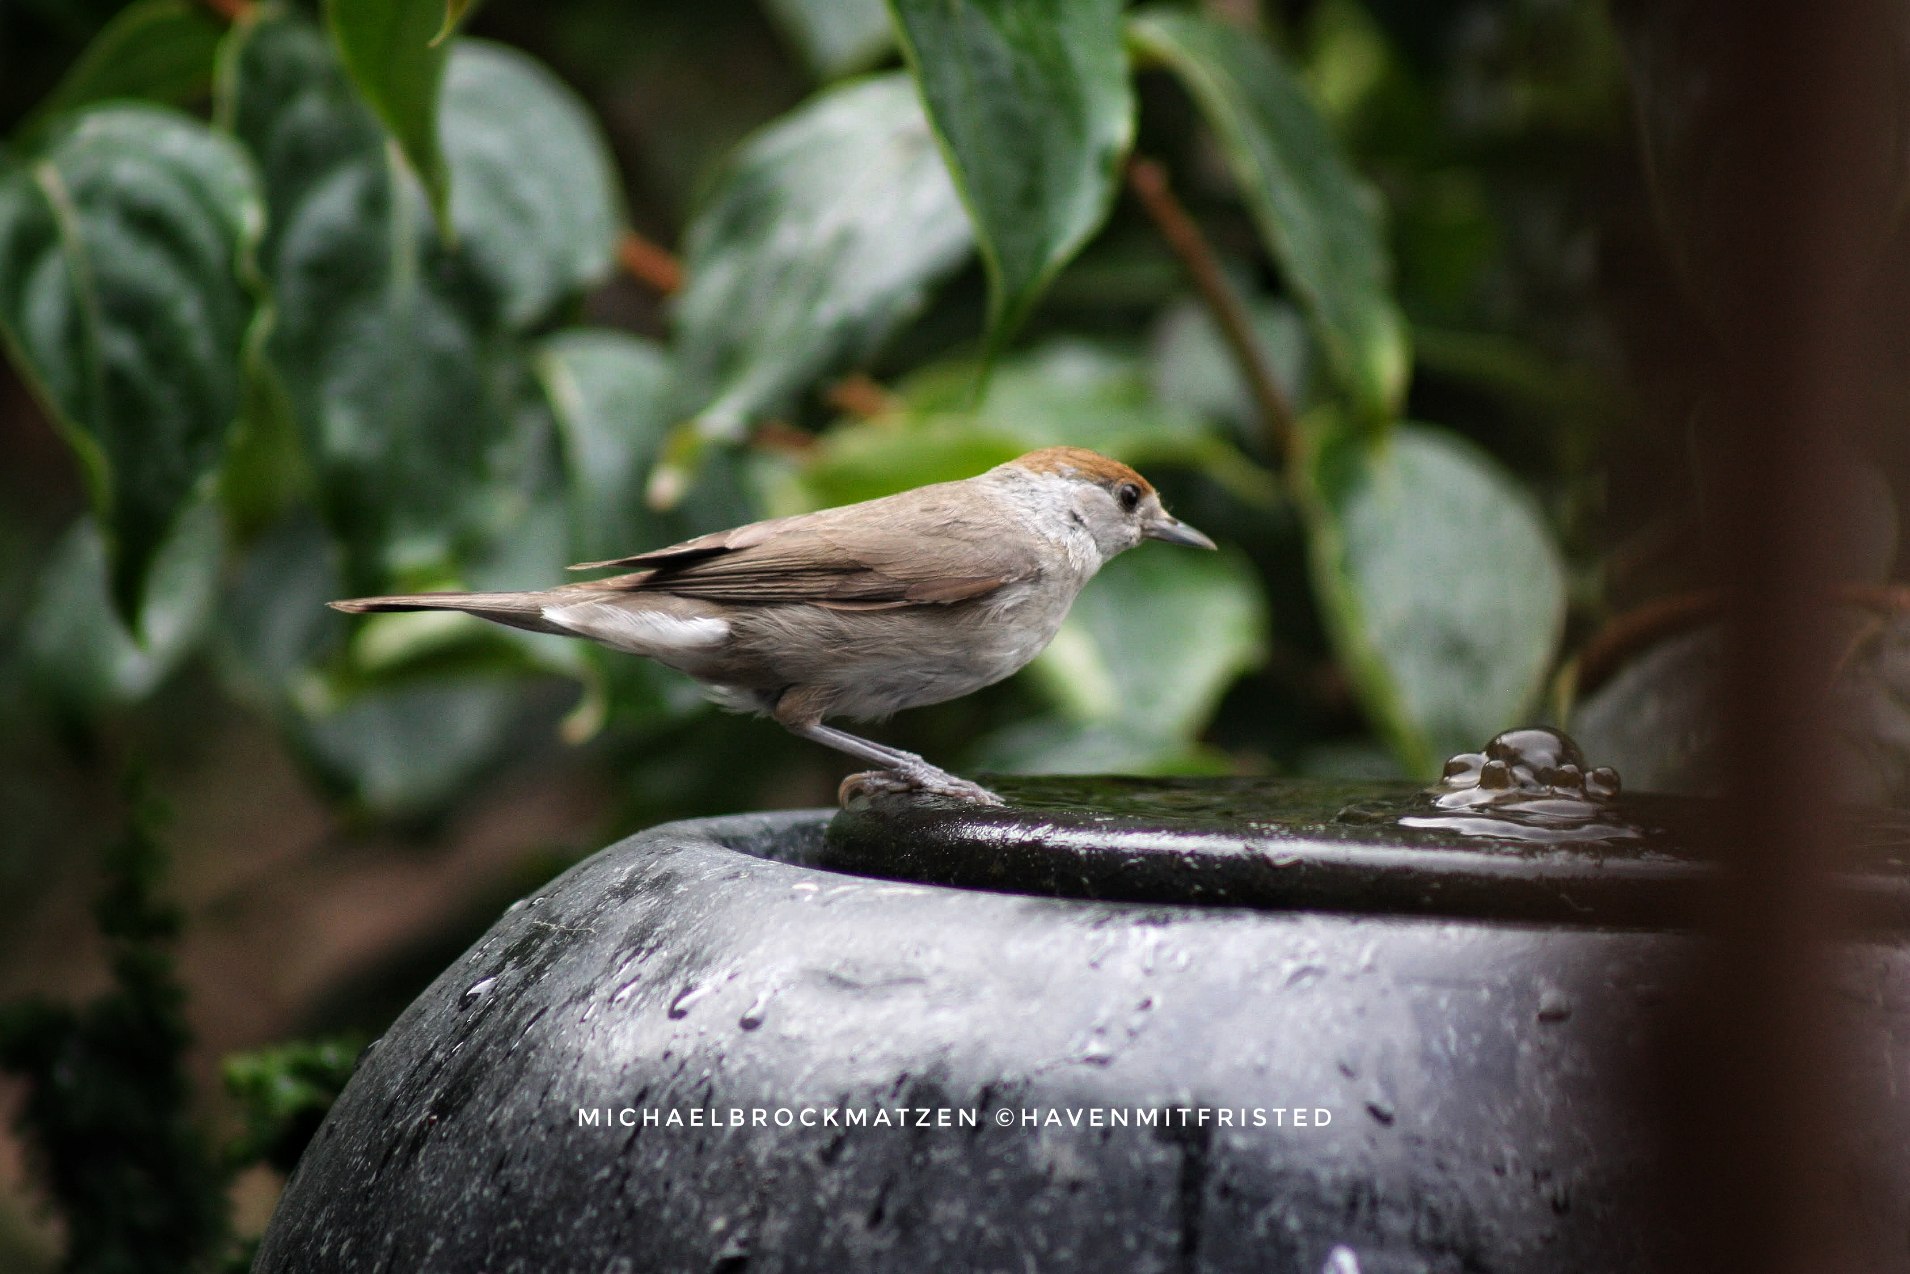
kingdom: Animalia
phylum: Chordata
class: Aves
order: Passeriformes
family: Sylviidae
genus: Sylvia
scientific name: Sylvia atricapilla
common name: Munk
